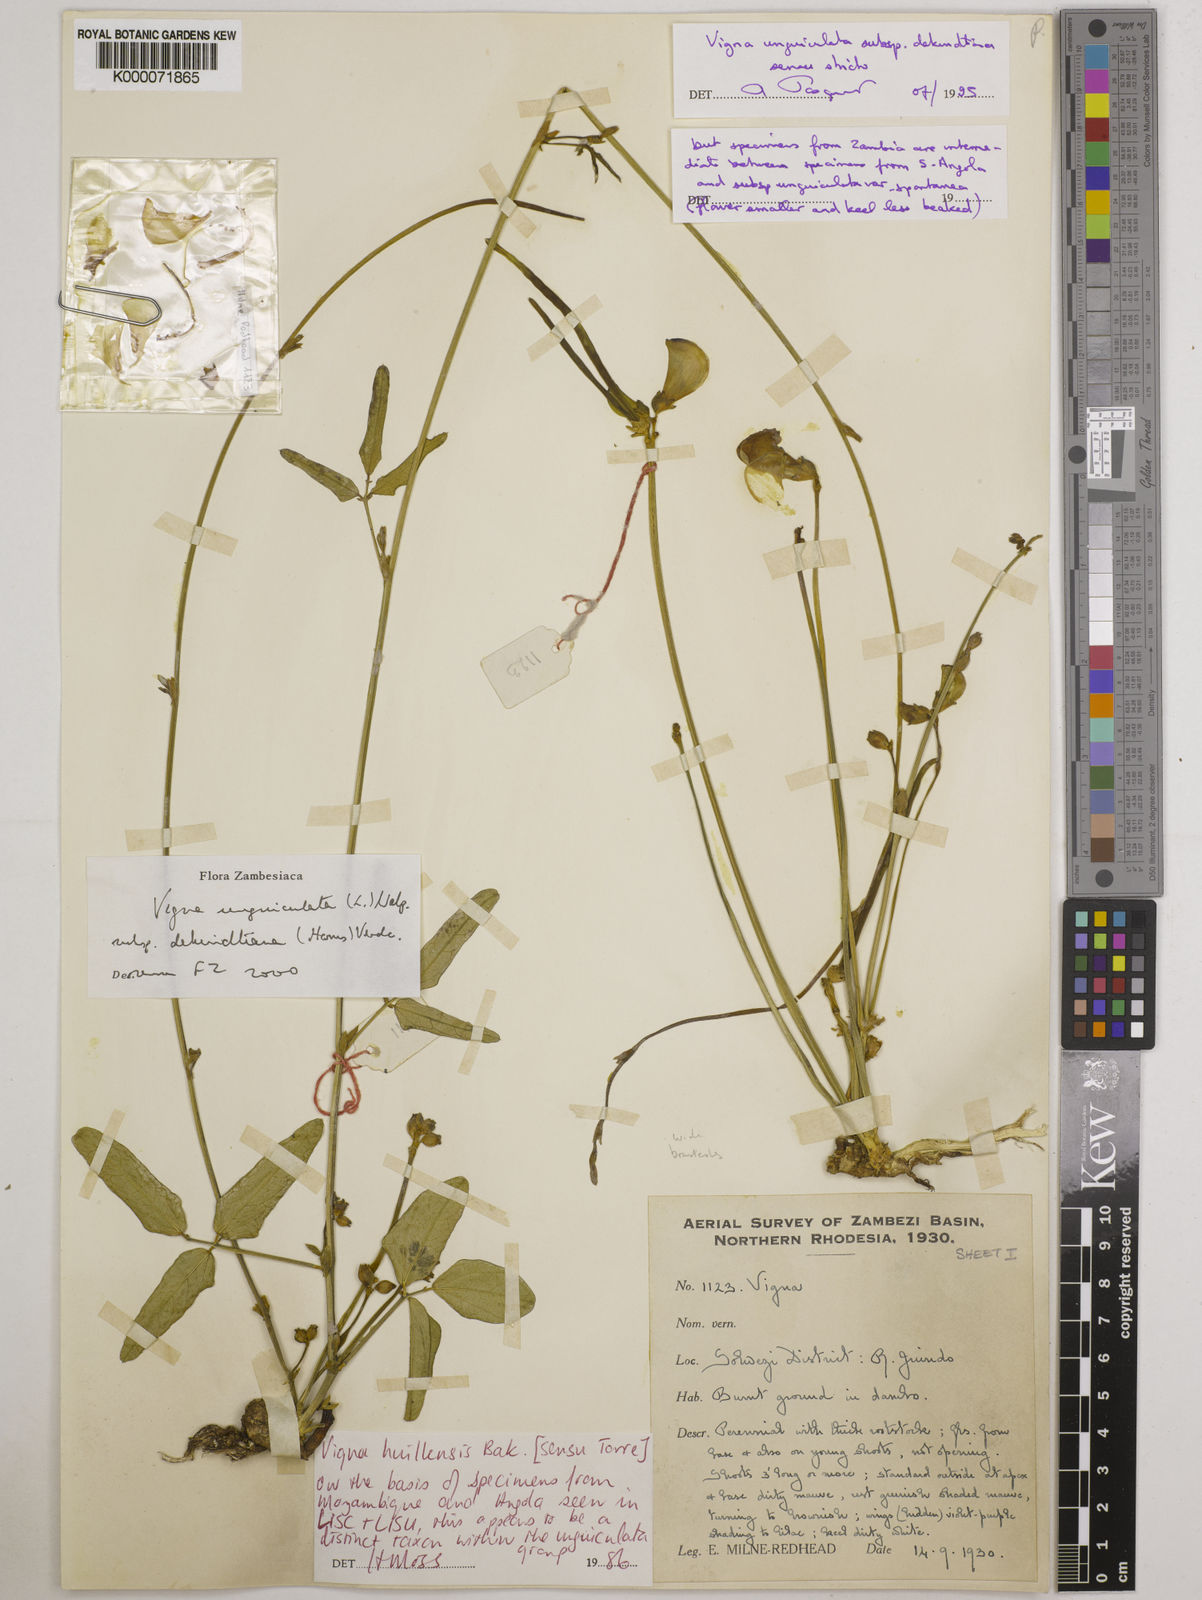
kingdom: Plantae
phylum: Tracheophyta
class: Magnoliopsida
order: Fabales
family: Fabaceae
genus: Vigna
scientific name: Vigna unguiculata
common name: Cowpea
